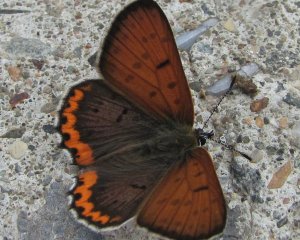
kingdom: Animalia
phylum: Arthropoda
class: Insecta
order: Lepidoptera
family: Sesiidae
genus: Sesia
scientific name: Sesia Lycaena hyllus
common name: Bronze Copper
